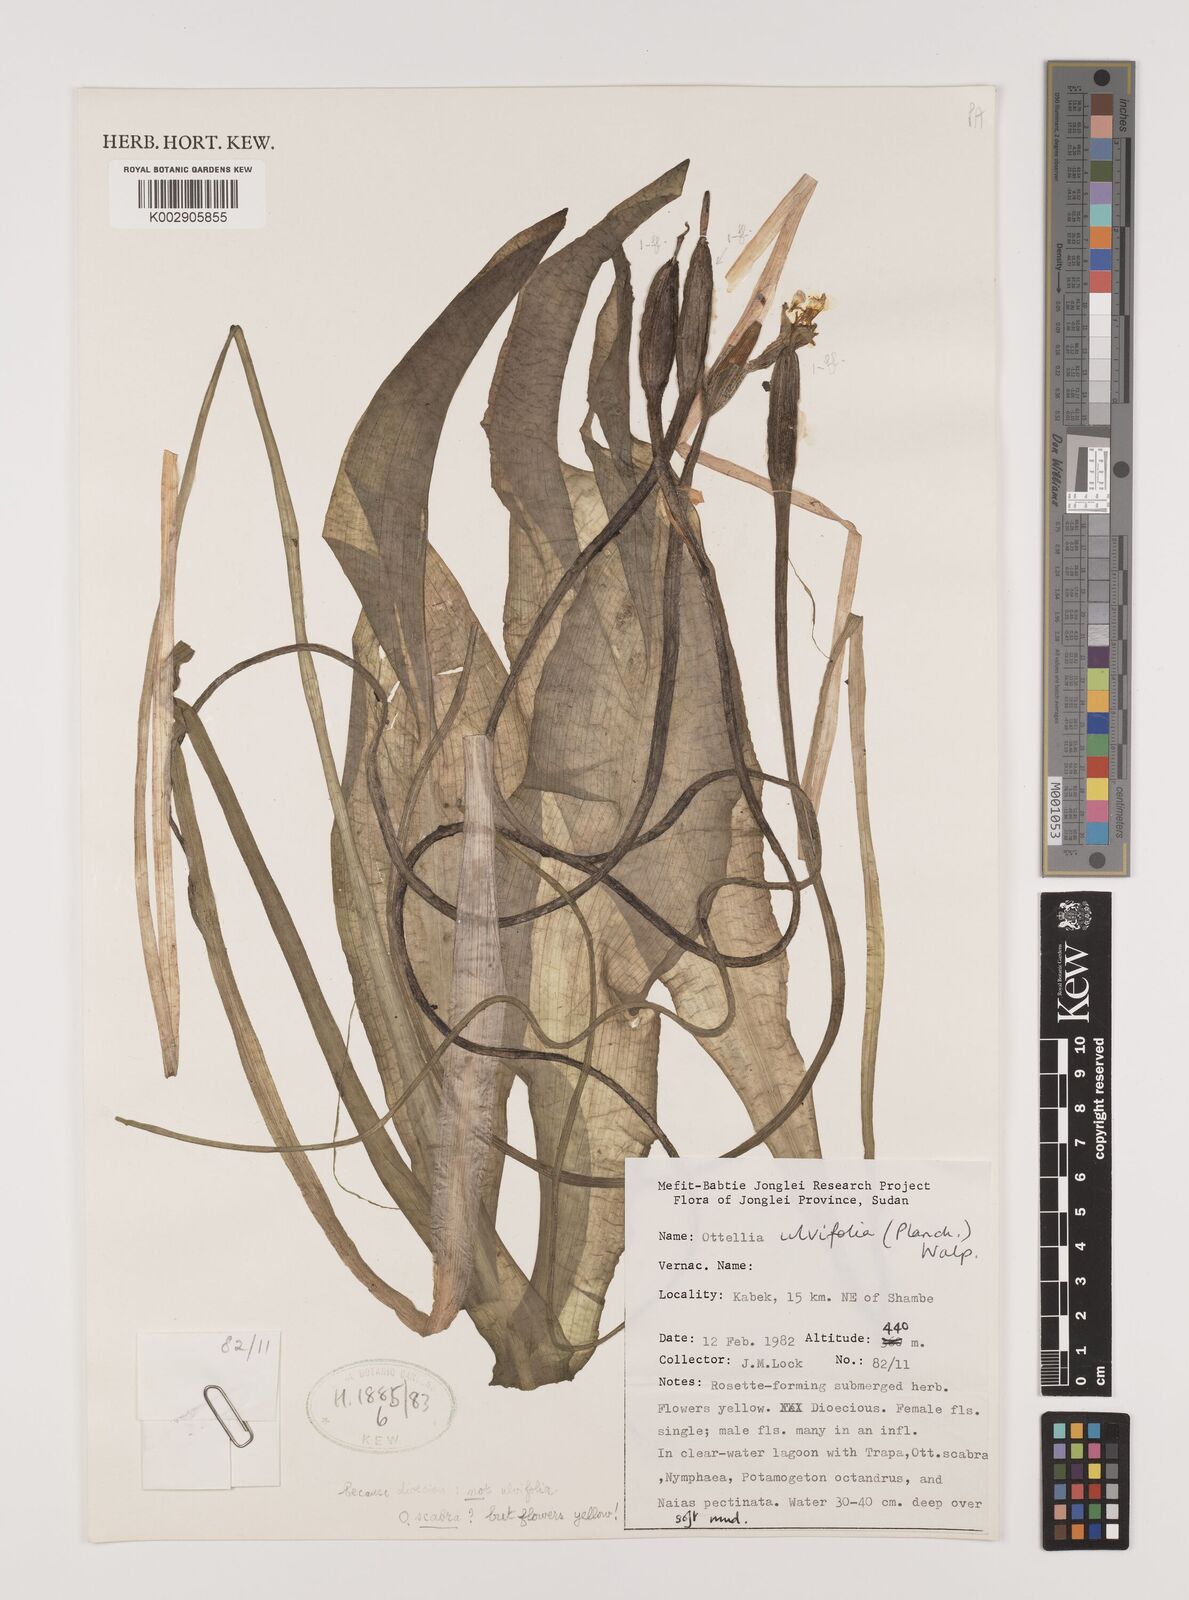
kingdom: Plantae
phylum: Tracheophyta
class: Liliopsida
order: Alismatales
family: Hydrocharitaceae
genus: Ottelia
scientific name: Ottelia scabra
